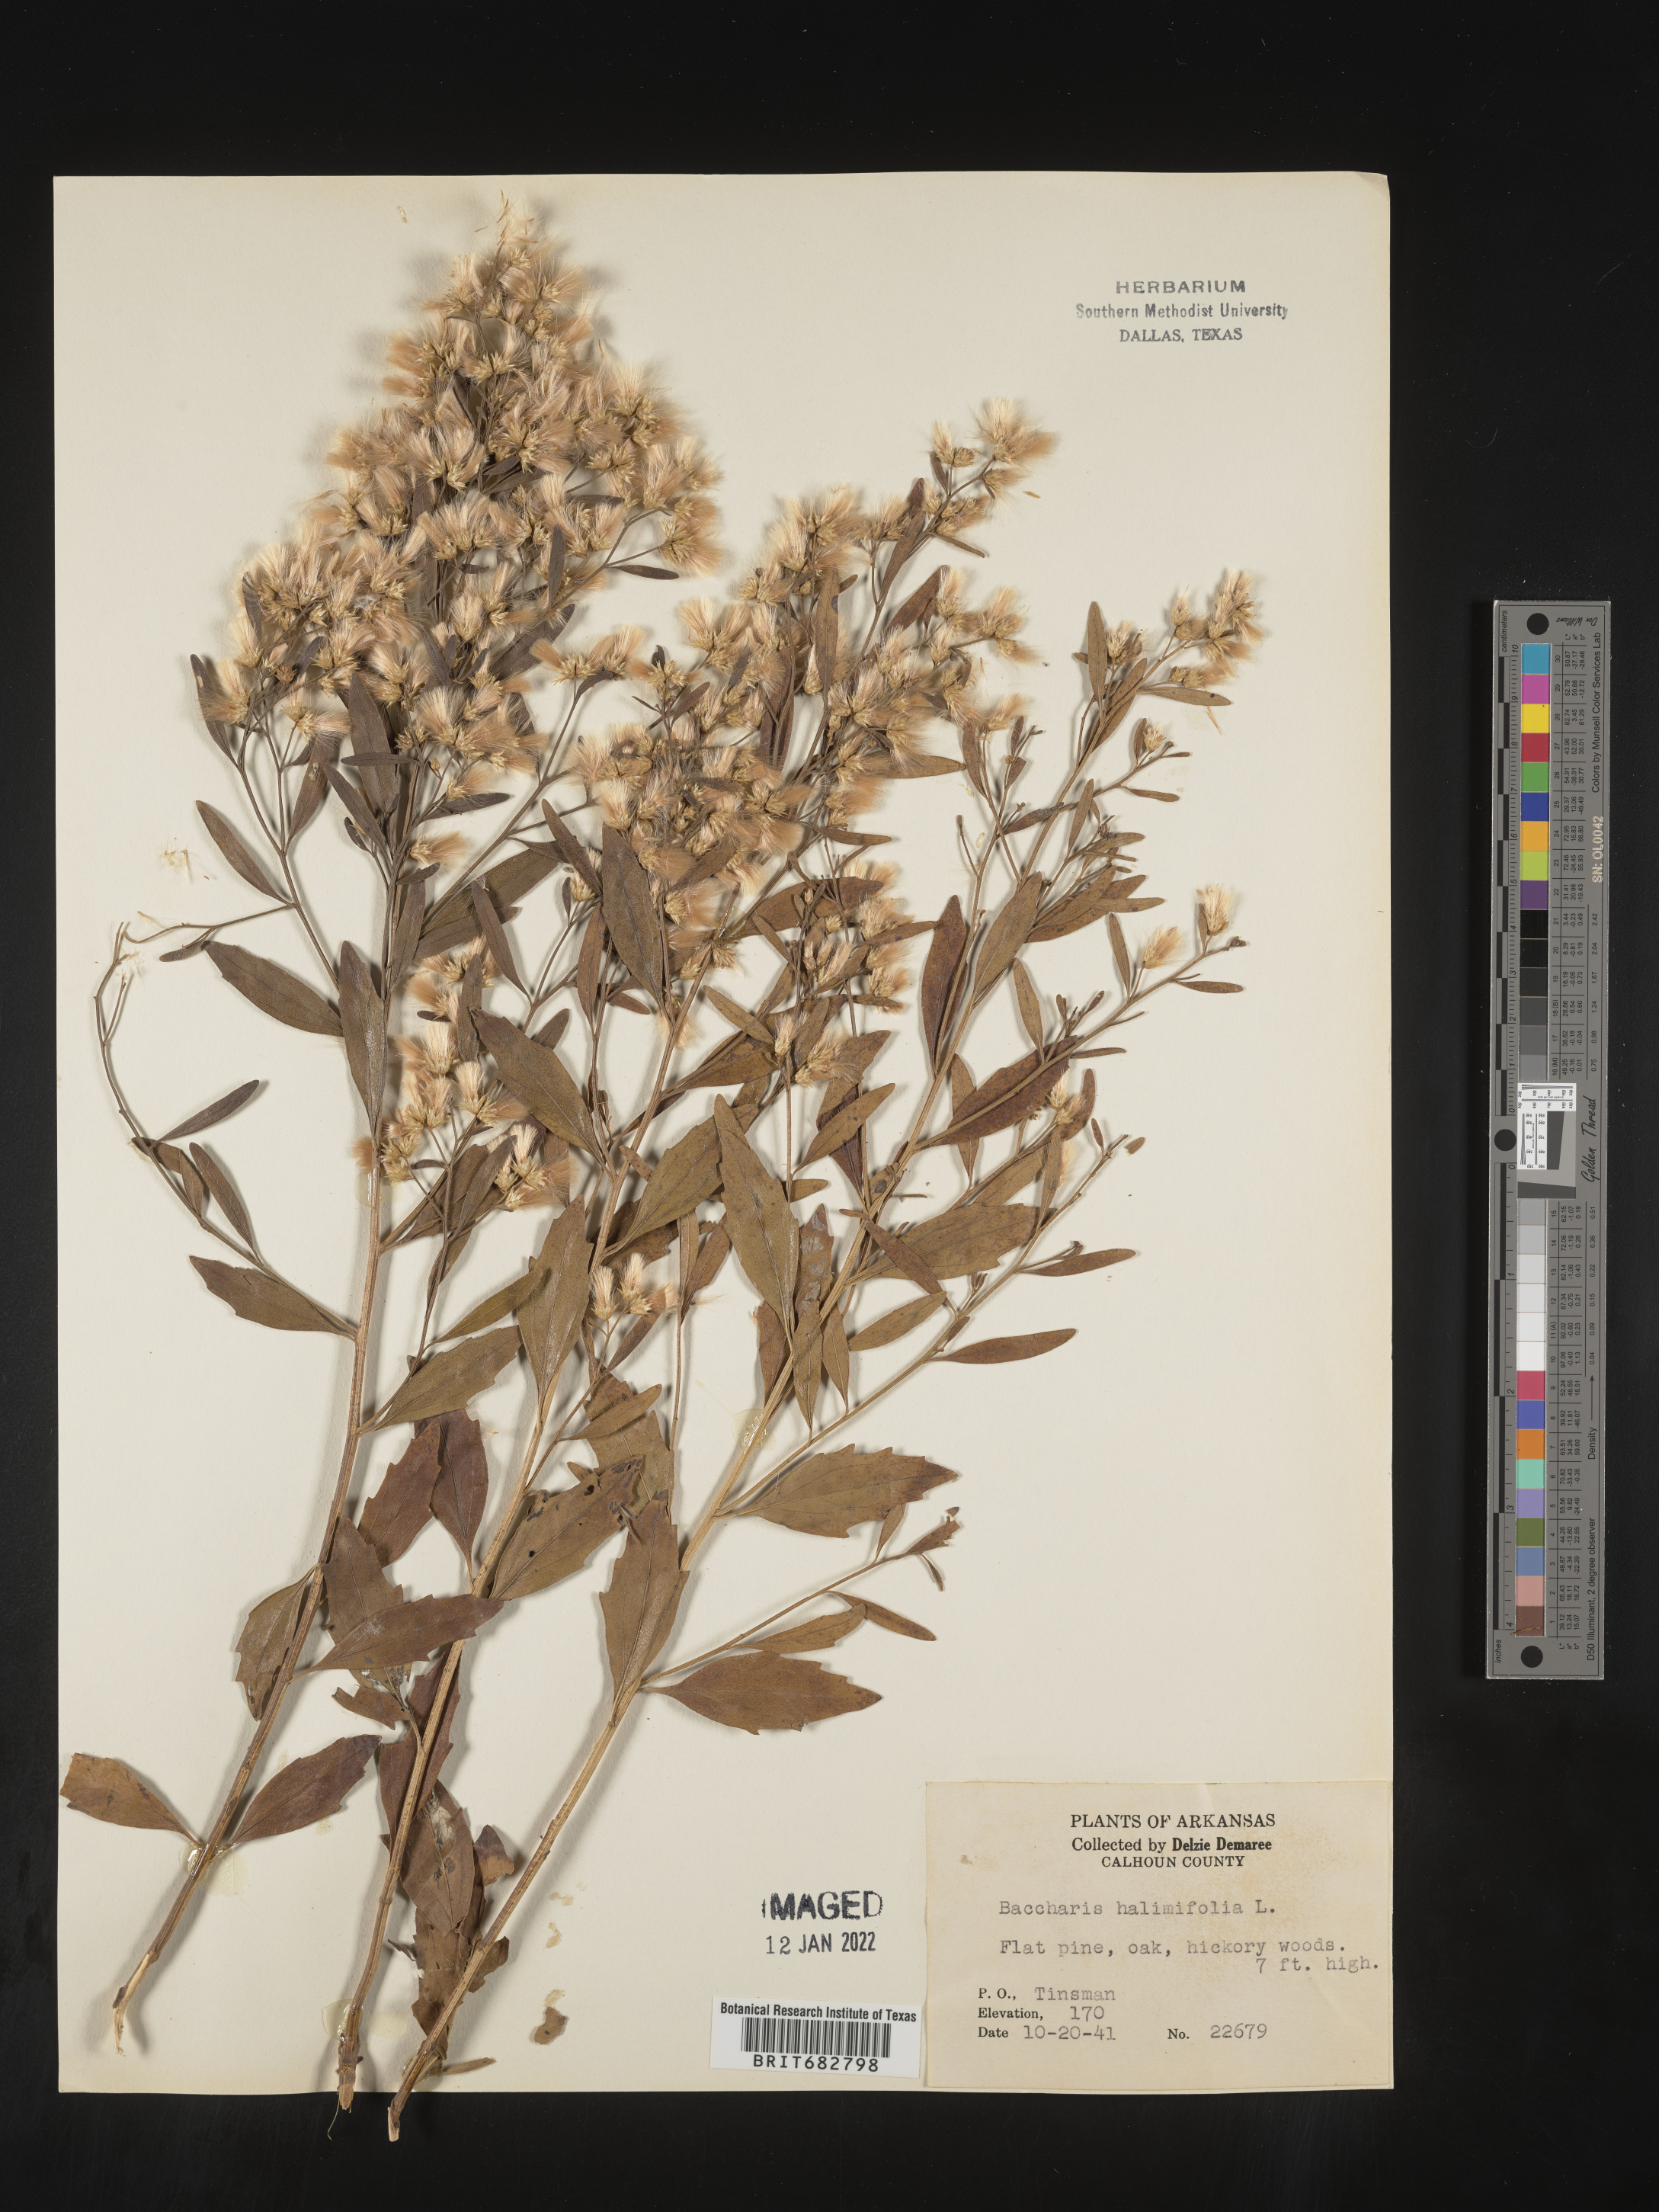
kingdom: Plantae
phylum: Tracheophyta
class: Magnoliopsida
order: Asterales
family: Asteraceae
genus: Nidorella
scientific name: Nidorella ivifolia
